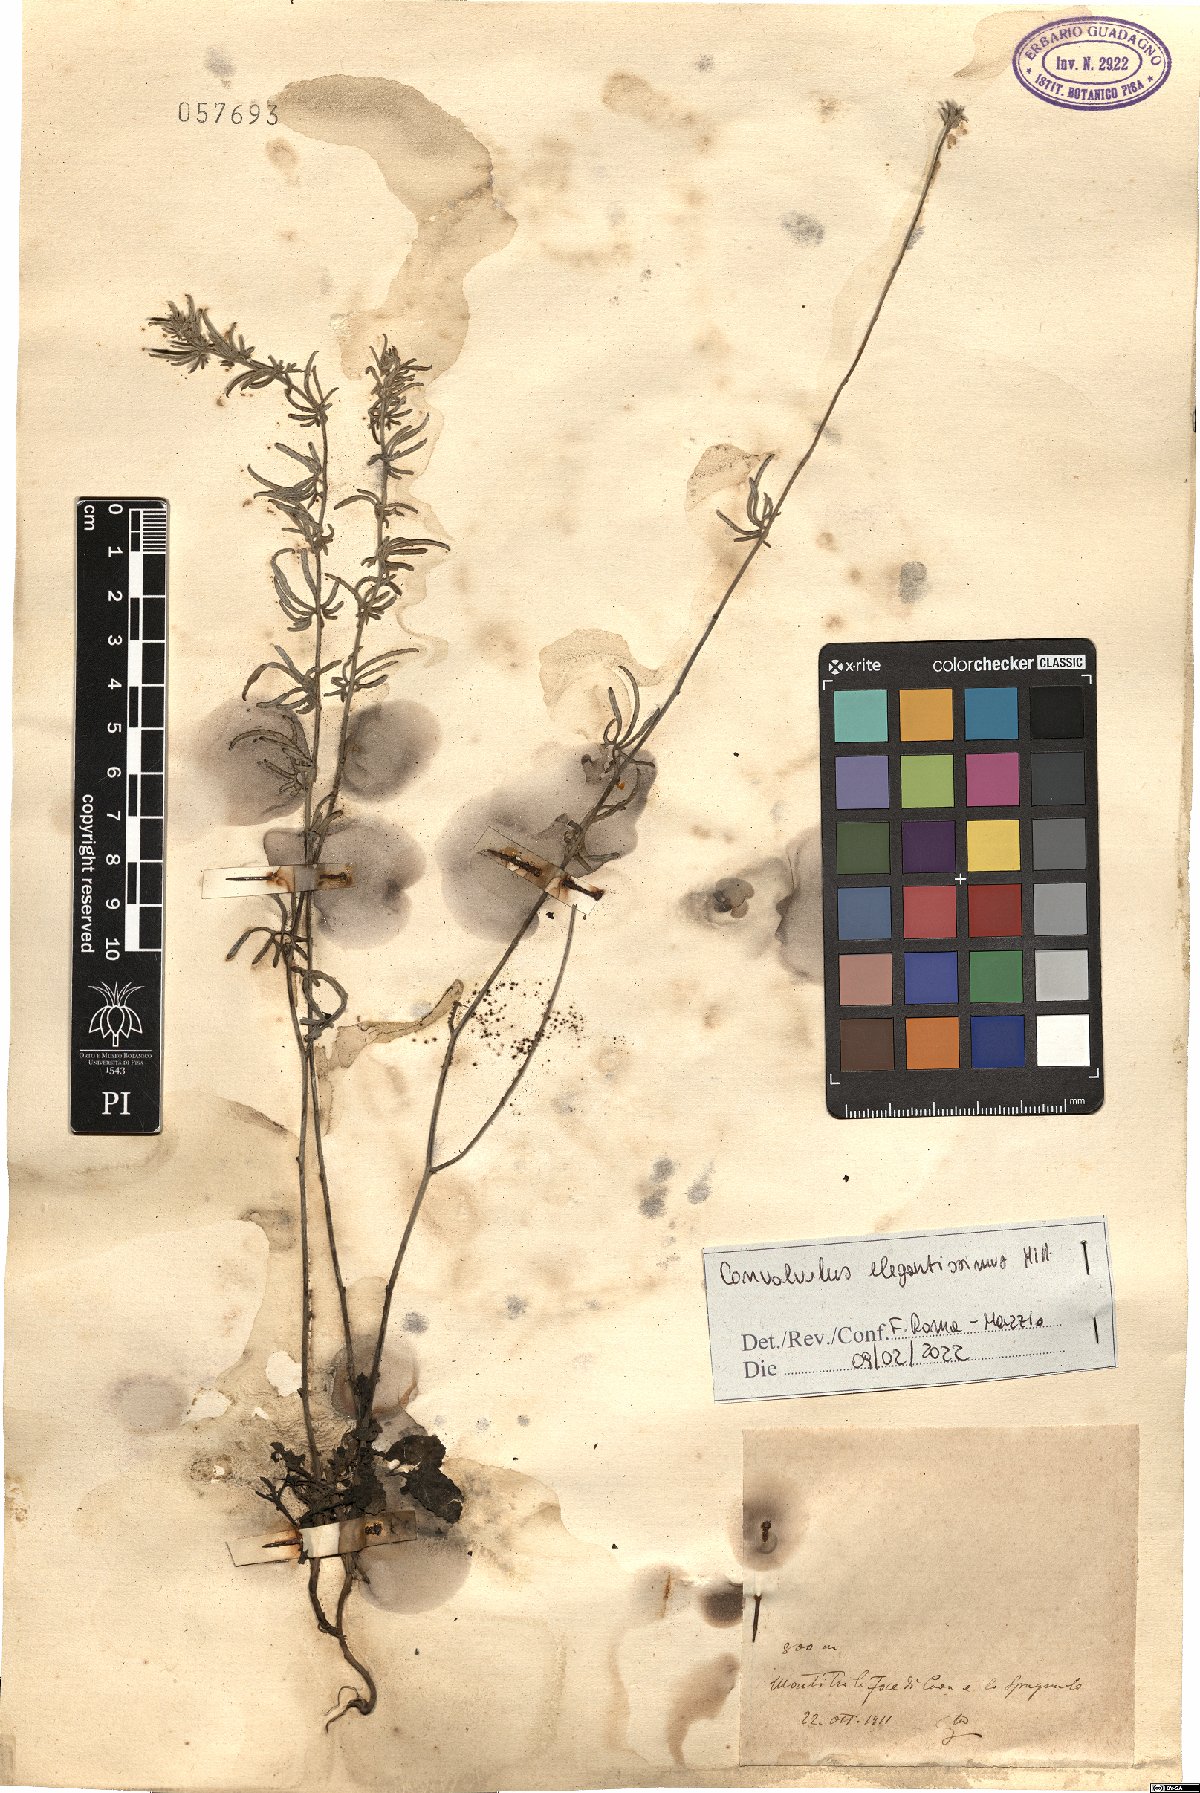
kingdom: Plantae
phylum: Tracheophyta
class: Magnoliopsida
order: Solanales
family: Convolvulaceae
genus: Convolvulus
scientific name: Convolvulus elegantissimus
